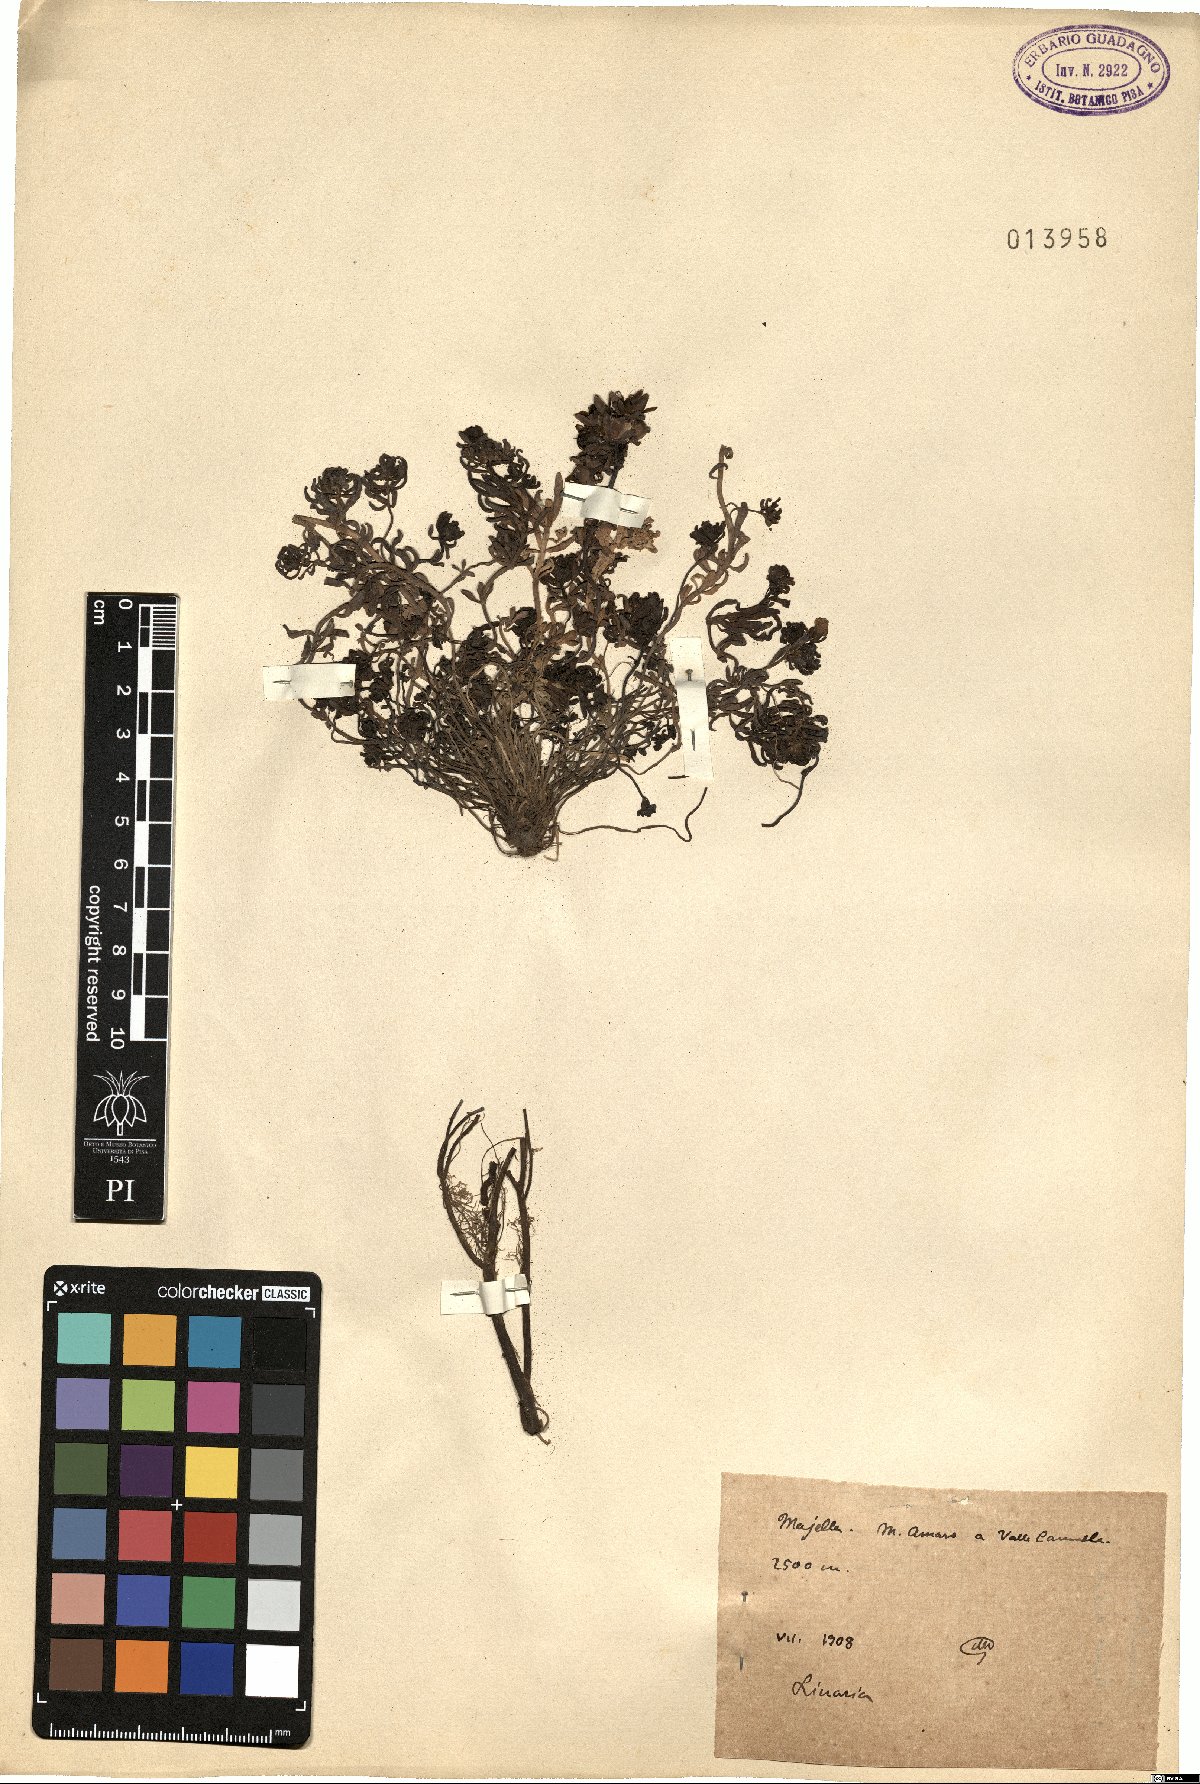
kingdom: Plantae
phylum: Tracheophyta
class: Magnoliopsida
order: Lamiales
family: Plantaginaceae
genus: Linaria
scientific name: Linaria
